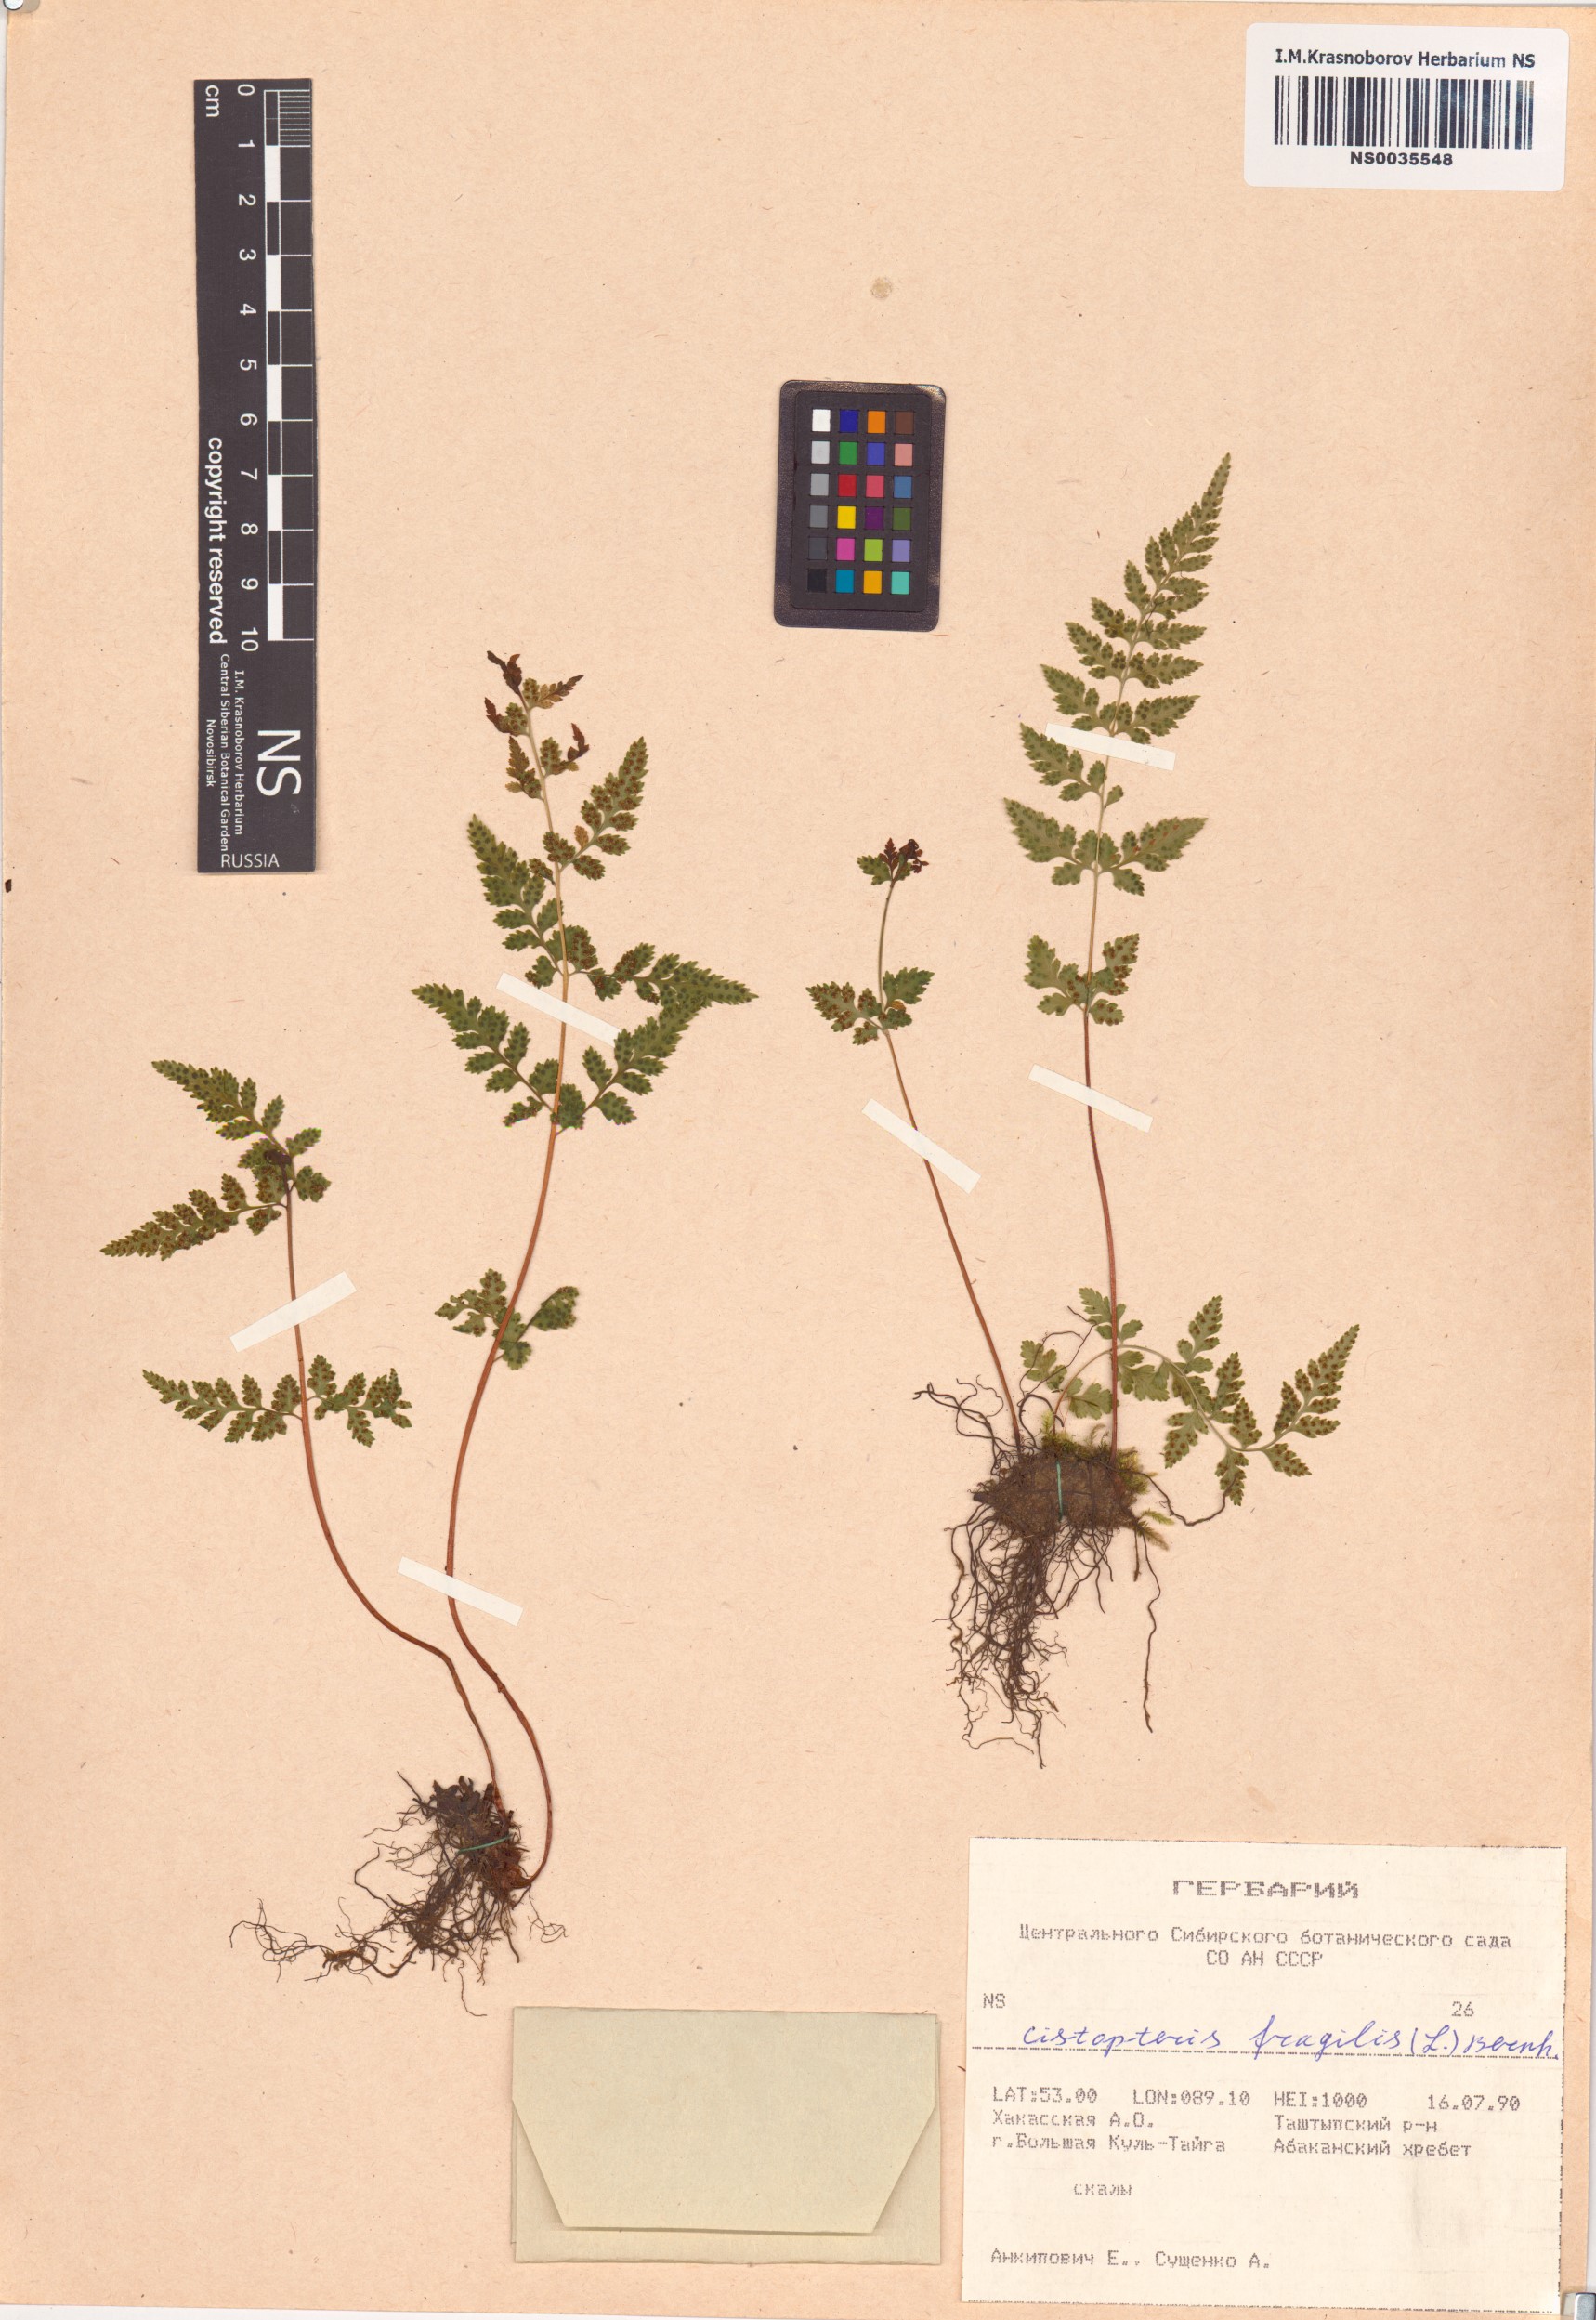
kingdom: Plantae
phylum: Tracheophyta
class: Polypodiopsida
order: Polypodiales
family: Cystopteridaceae
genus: Cystopteris
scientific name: Cystopteris fragilis
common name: Brittle bladder fern
